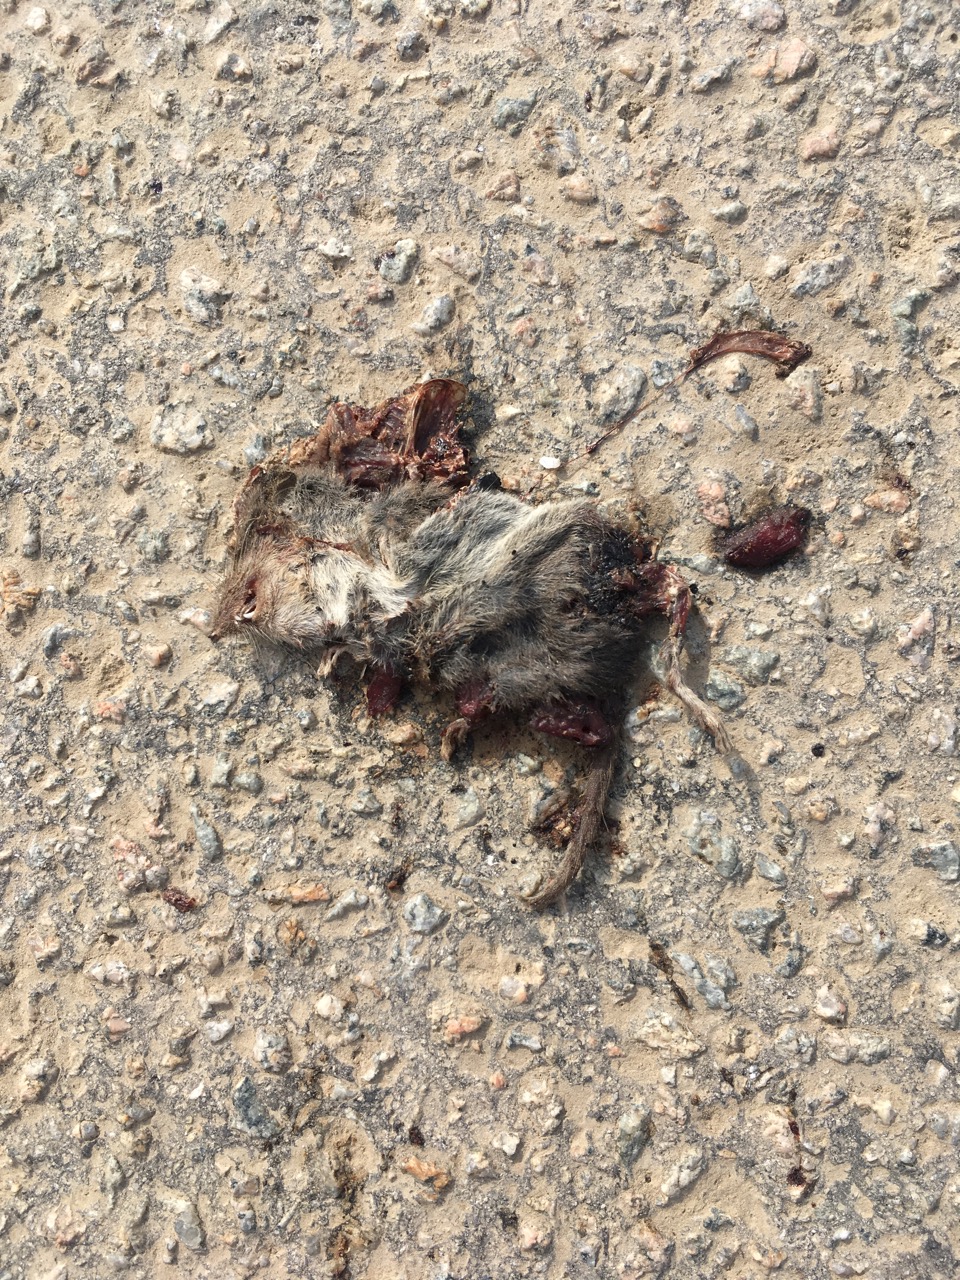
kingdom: Animalia
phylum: Chordata
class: Mammalia
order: Soricomorpha
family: Soricidae
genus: Crocidura
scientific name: Crocidura
